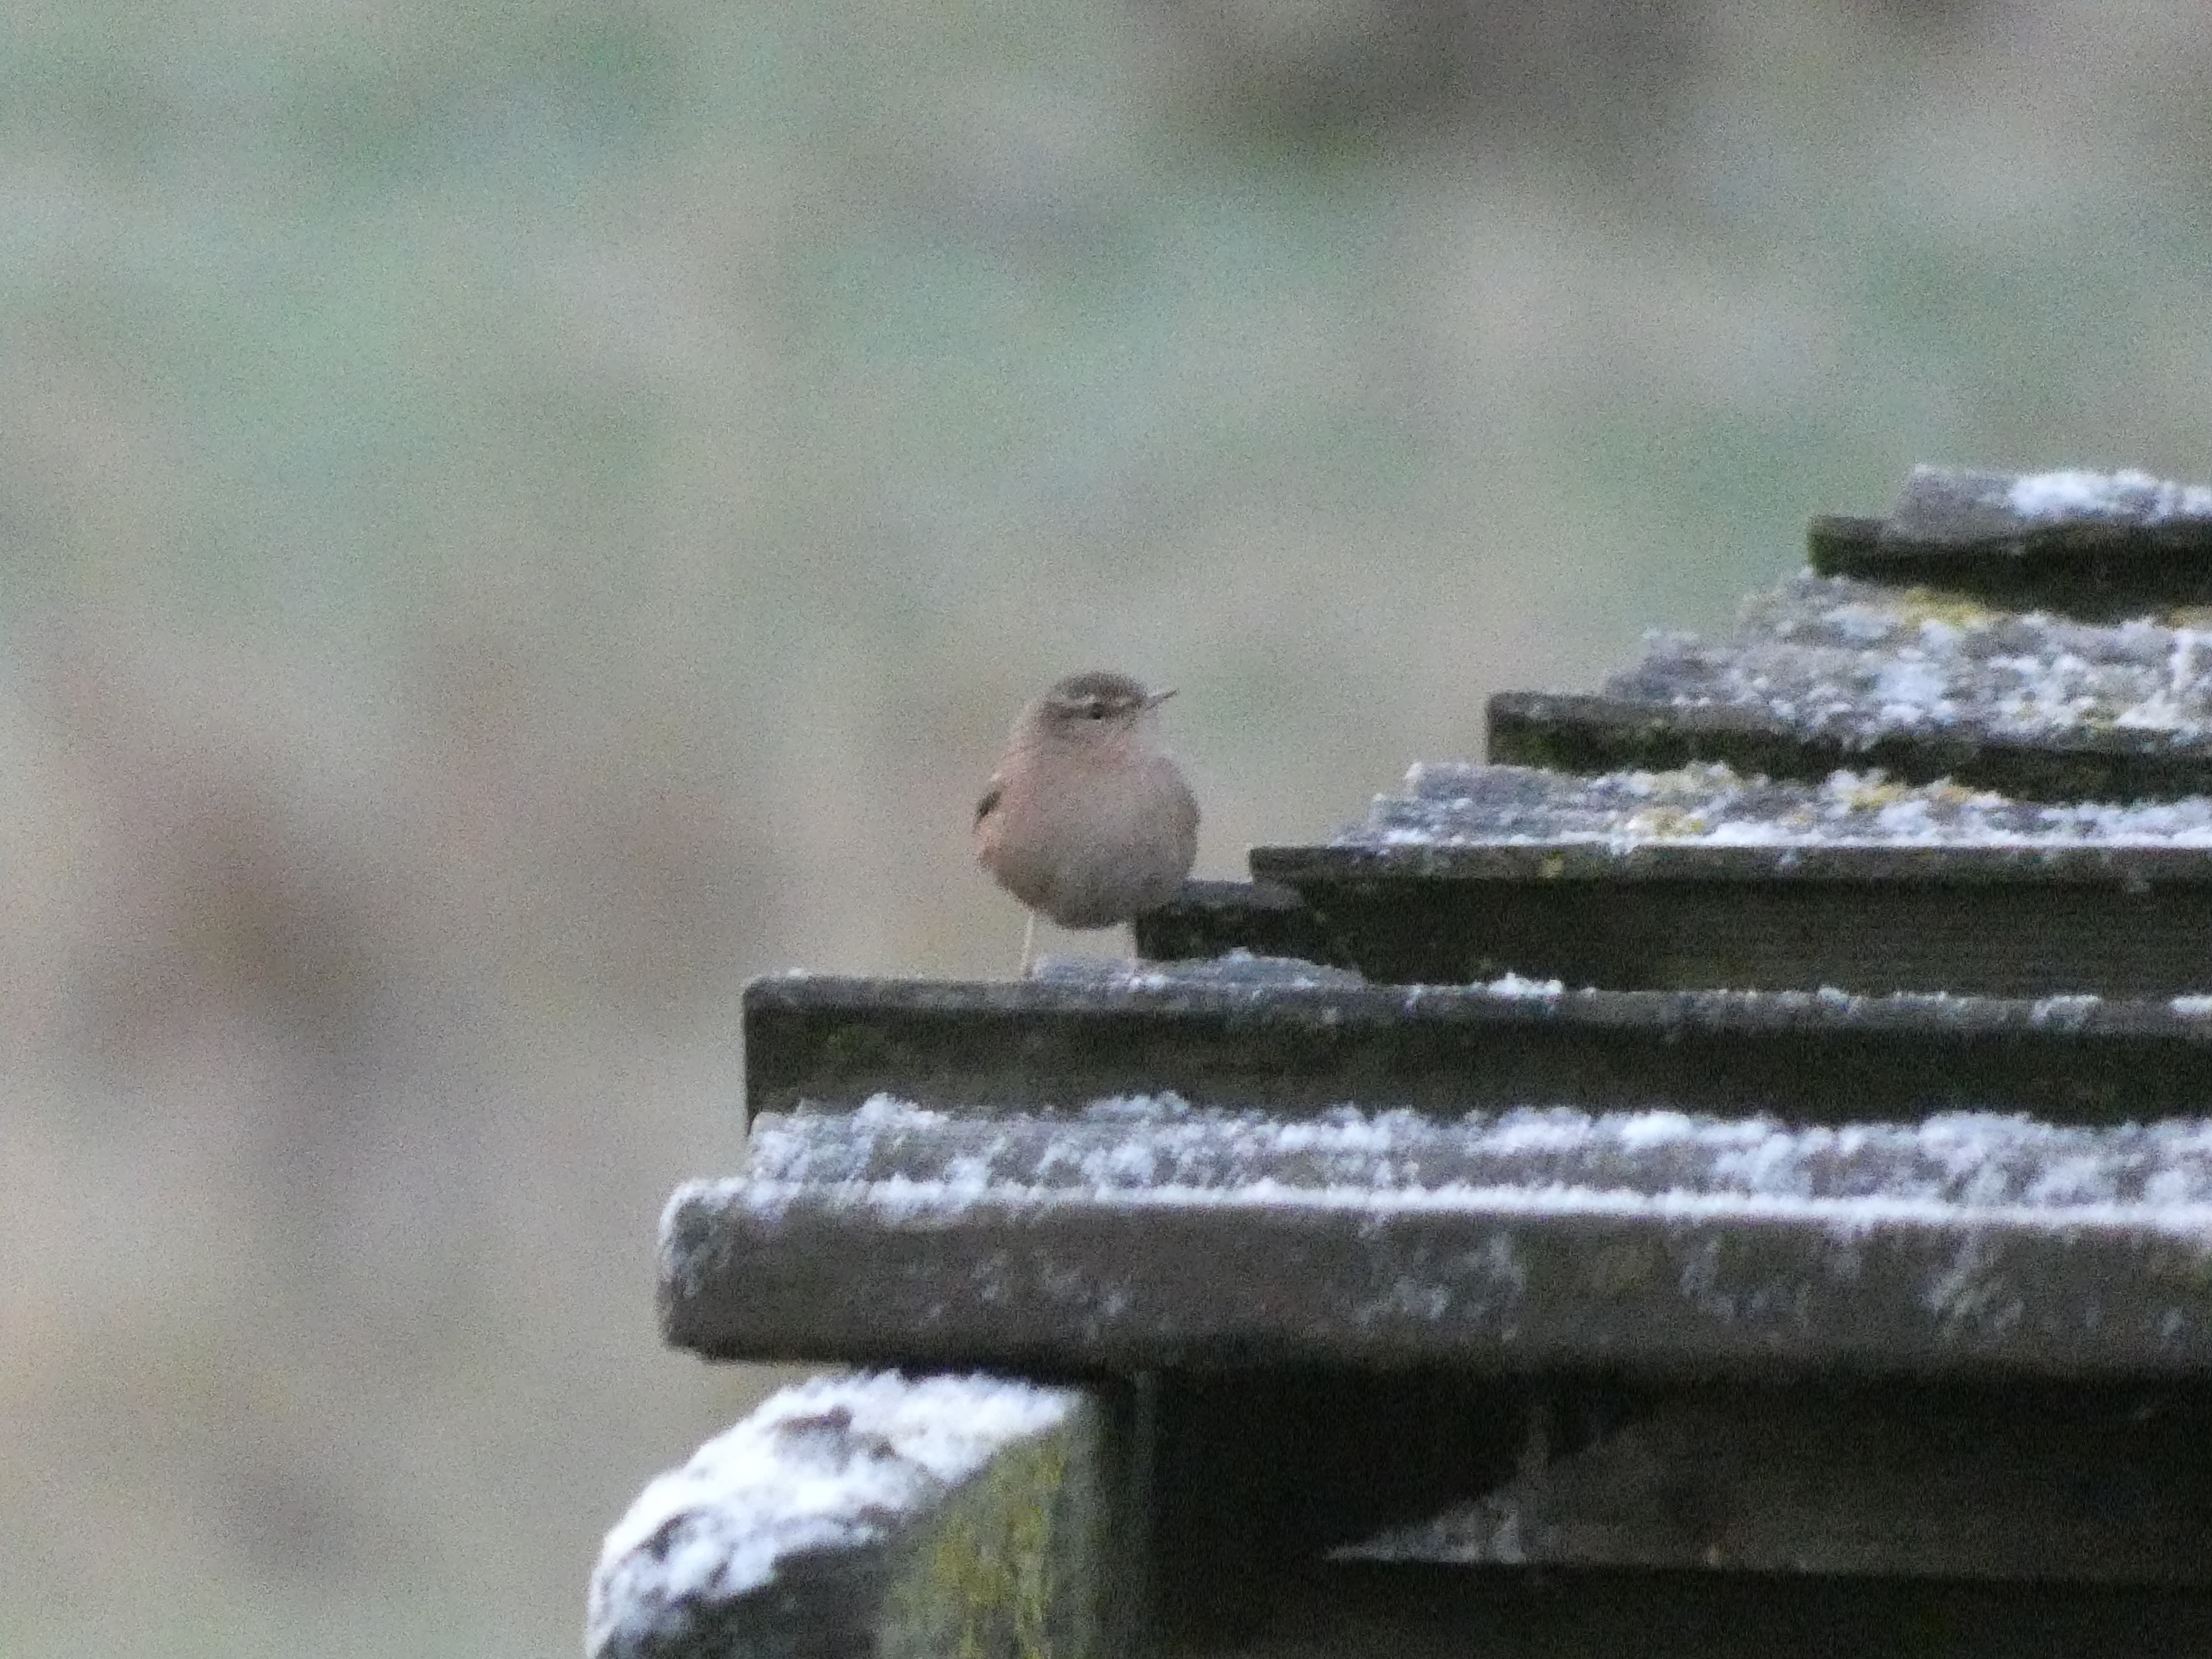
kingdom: Animalia
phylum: Chordata
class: Aves
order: Passeriformes
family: Troglodytidae
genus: Troglodytes
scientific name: Troglodytes troglodytes
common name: Gærdesmutte
